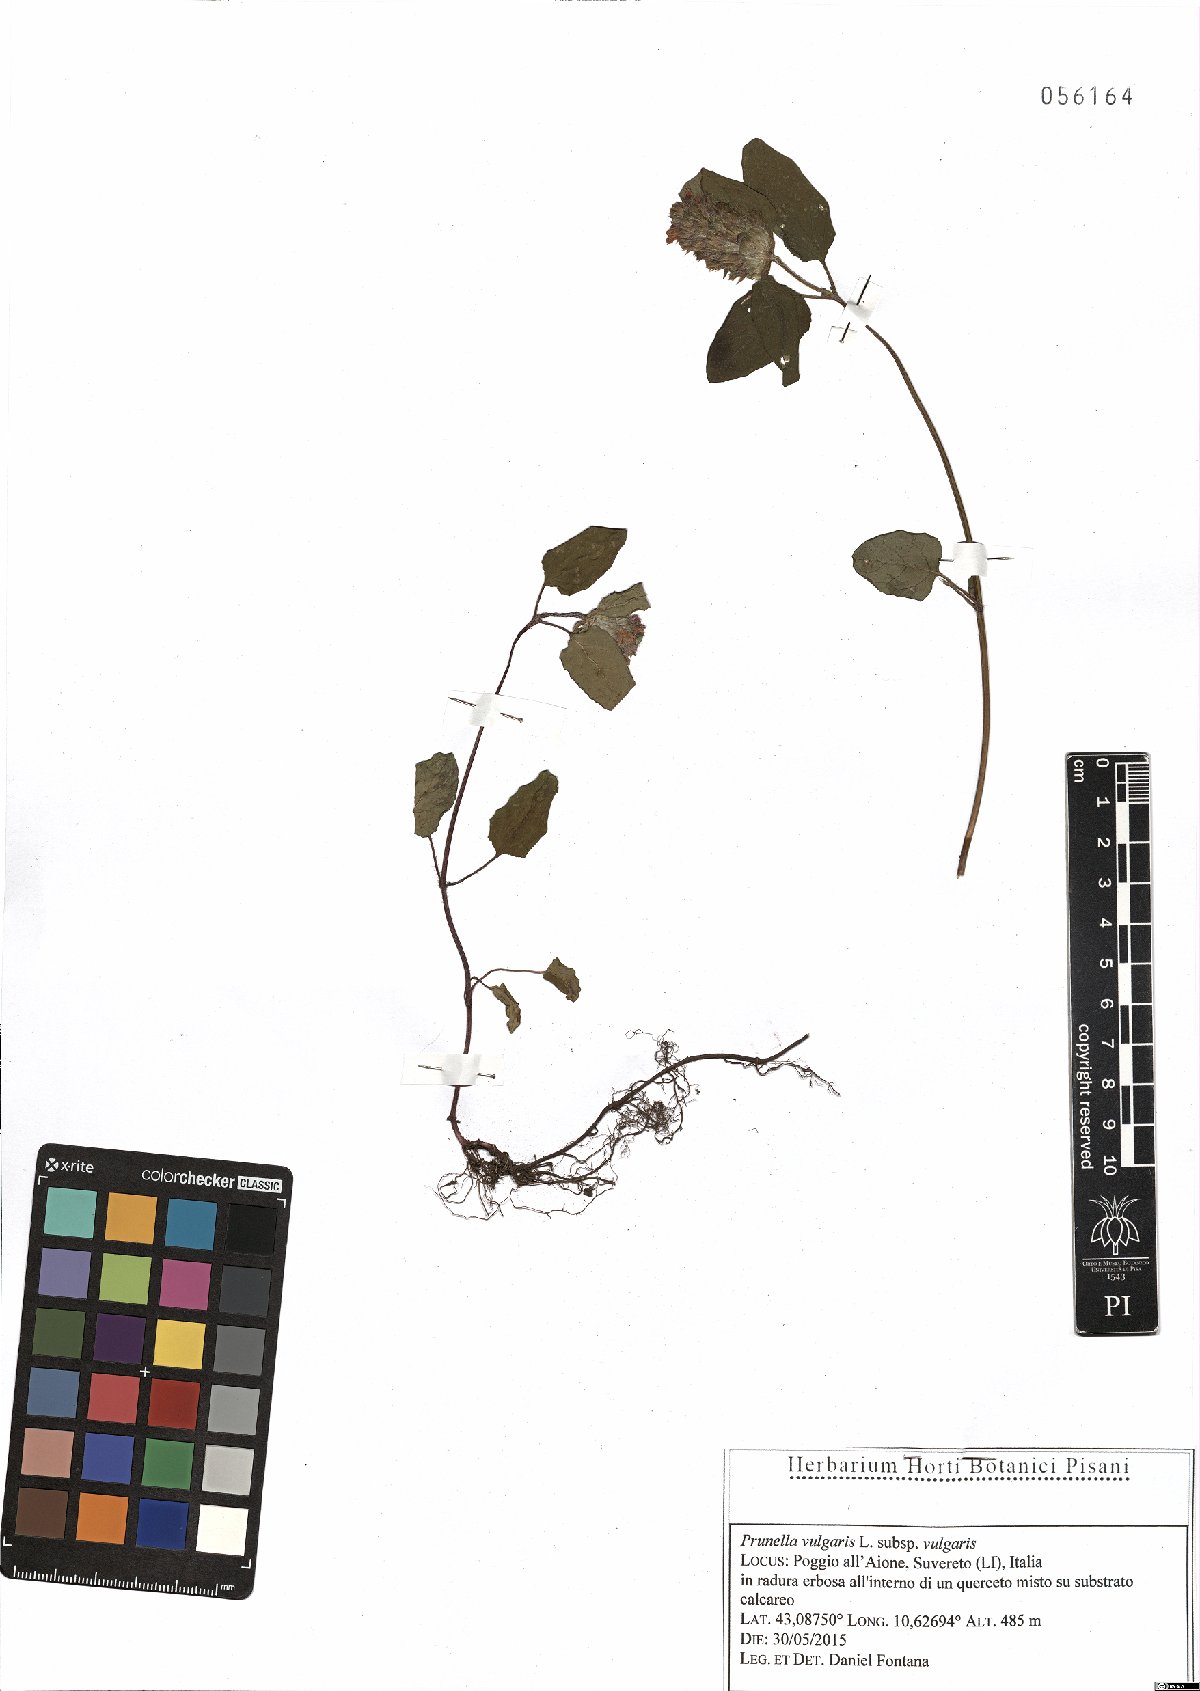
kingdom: Plantae
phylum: Tracheophyta
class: Magnoliopsida
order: Lamiales
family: Lamiaceae
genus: Prunella
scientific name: Prunella vulgaris
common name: Heal-all
